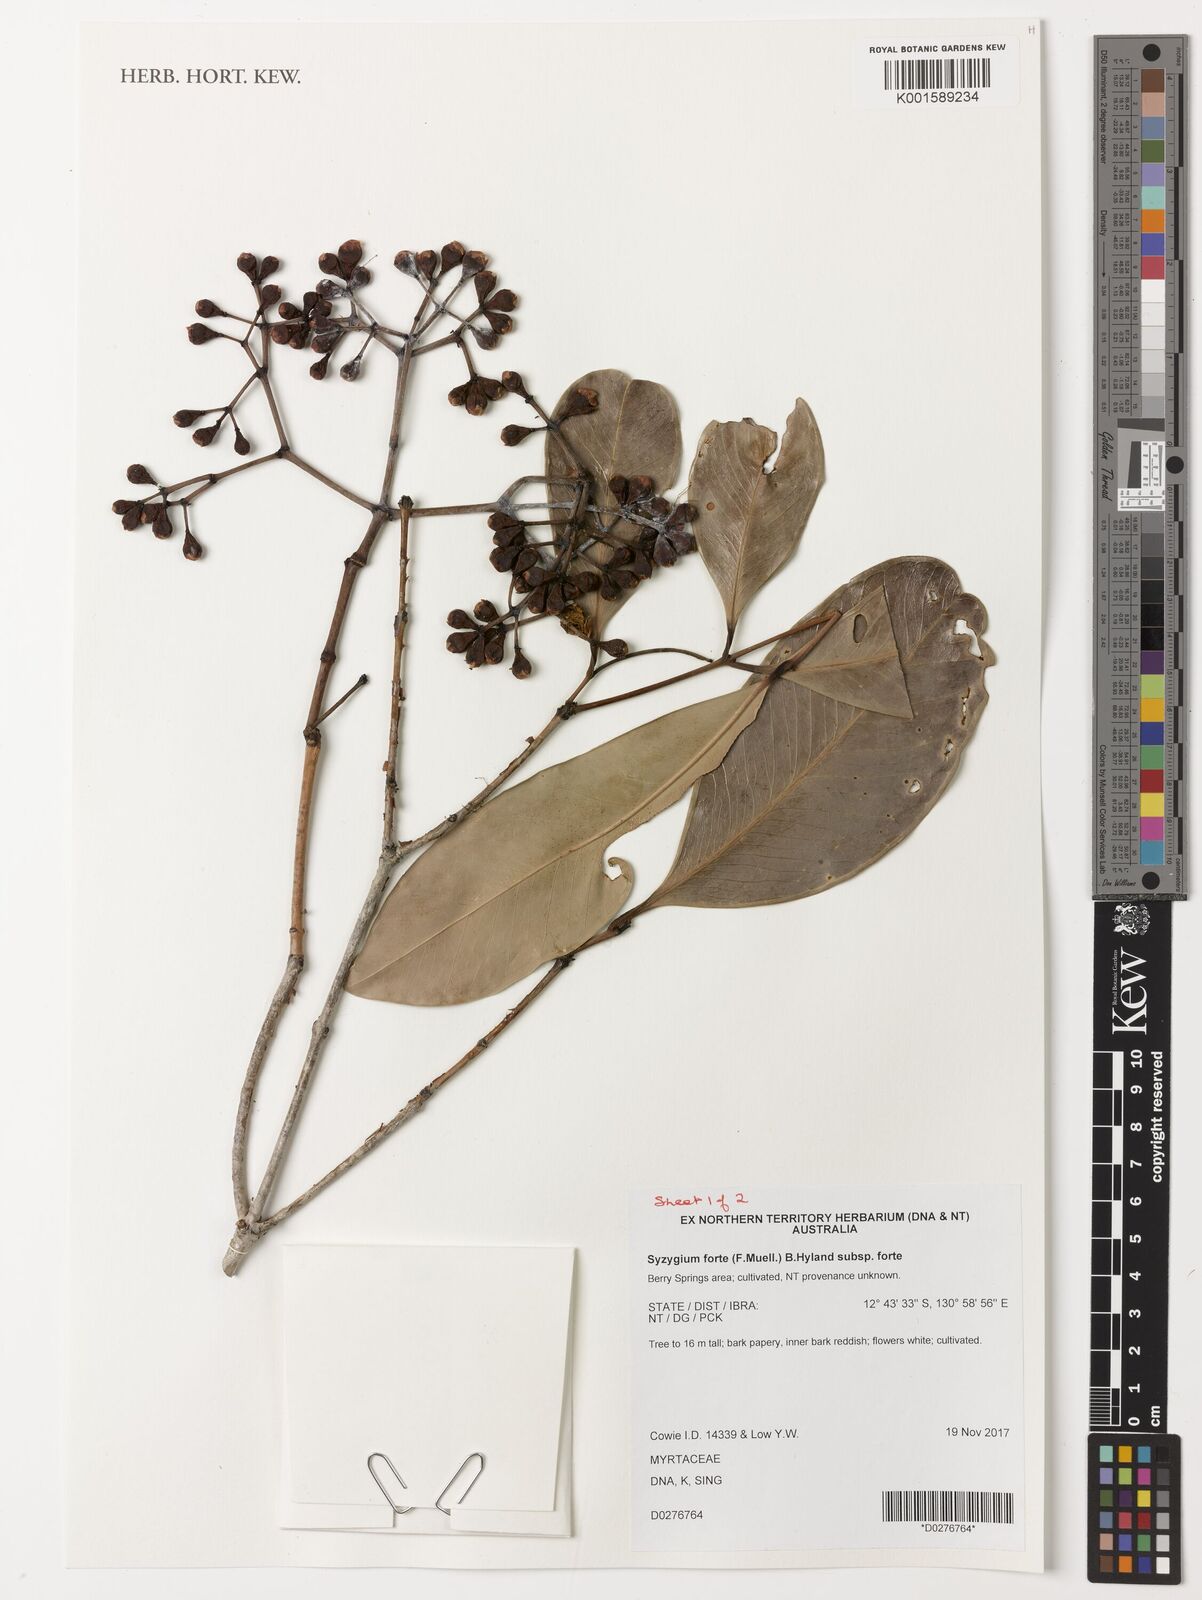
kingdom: Plantae
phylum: Tracheophyta
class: Magnoliopsida
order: Myrtales
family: Myrtaceae
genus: Syzygium
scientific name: Syzygium forte
